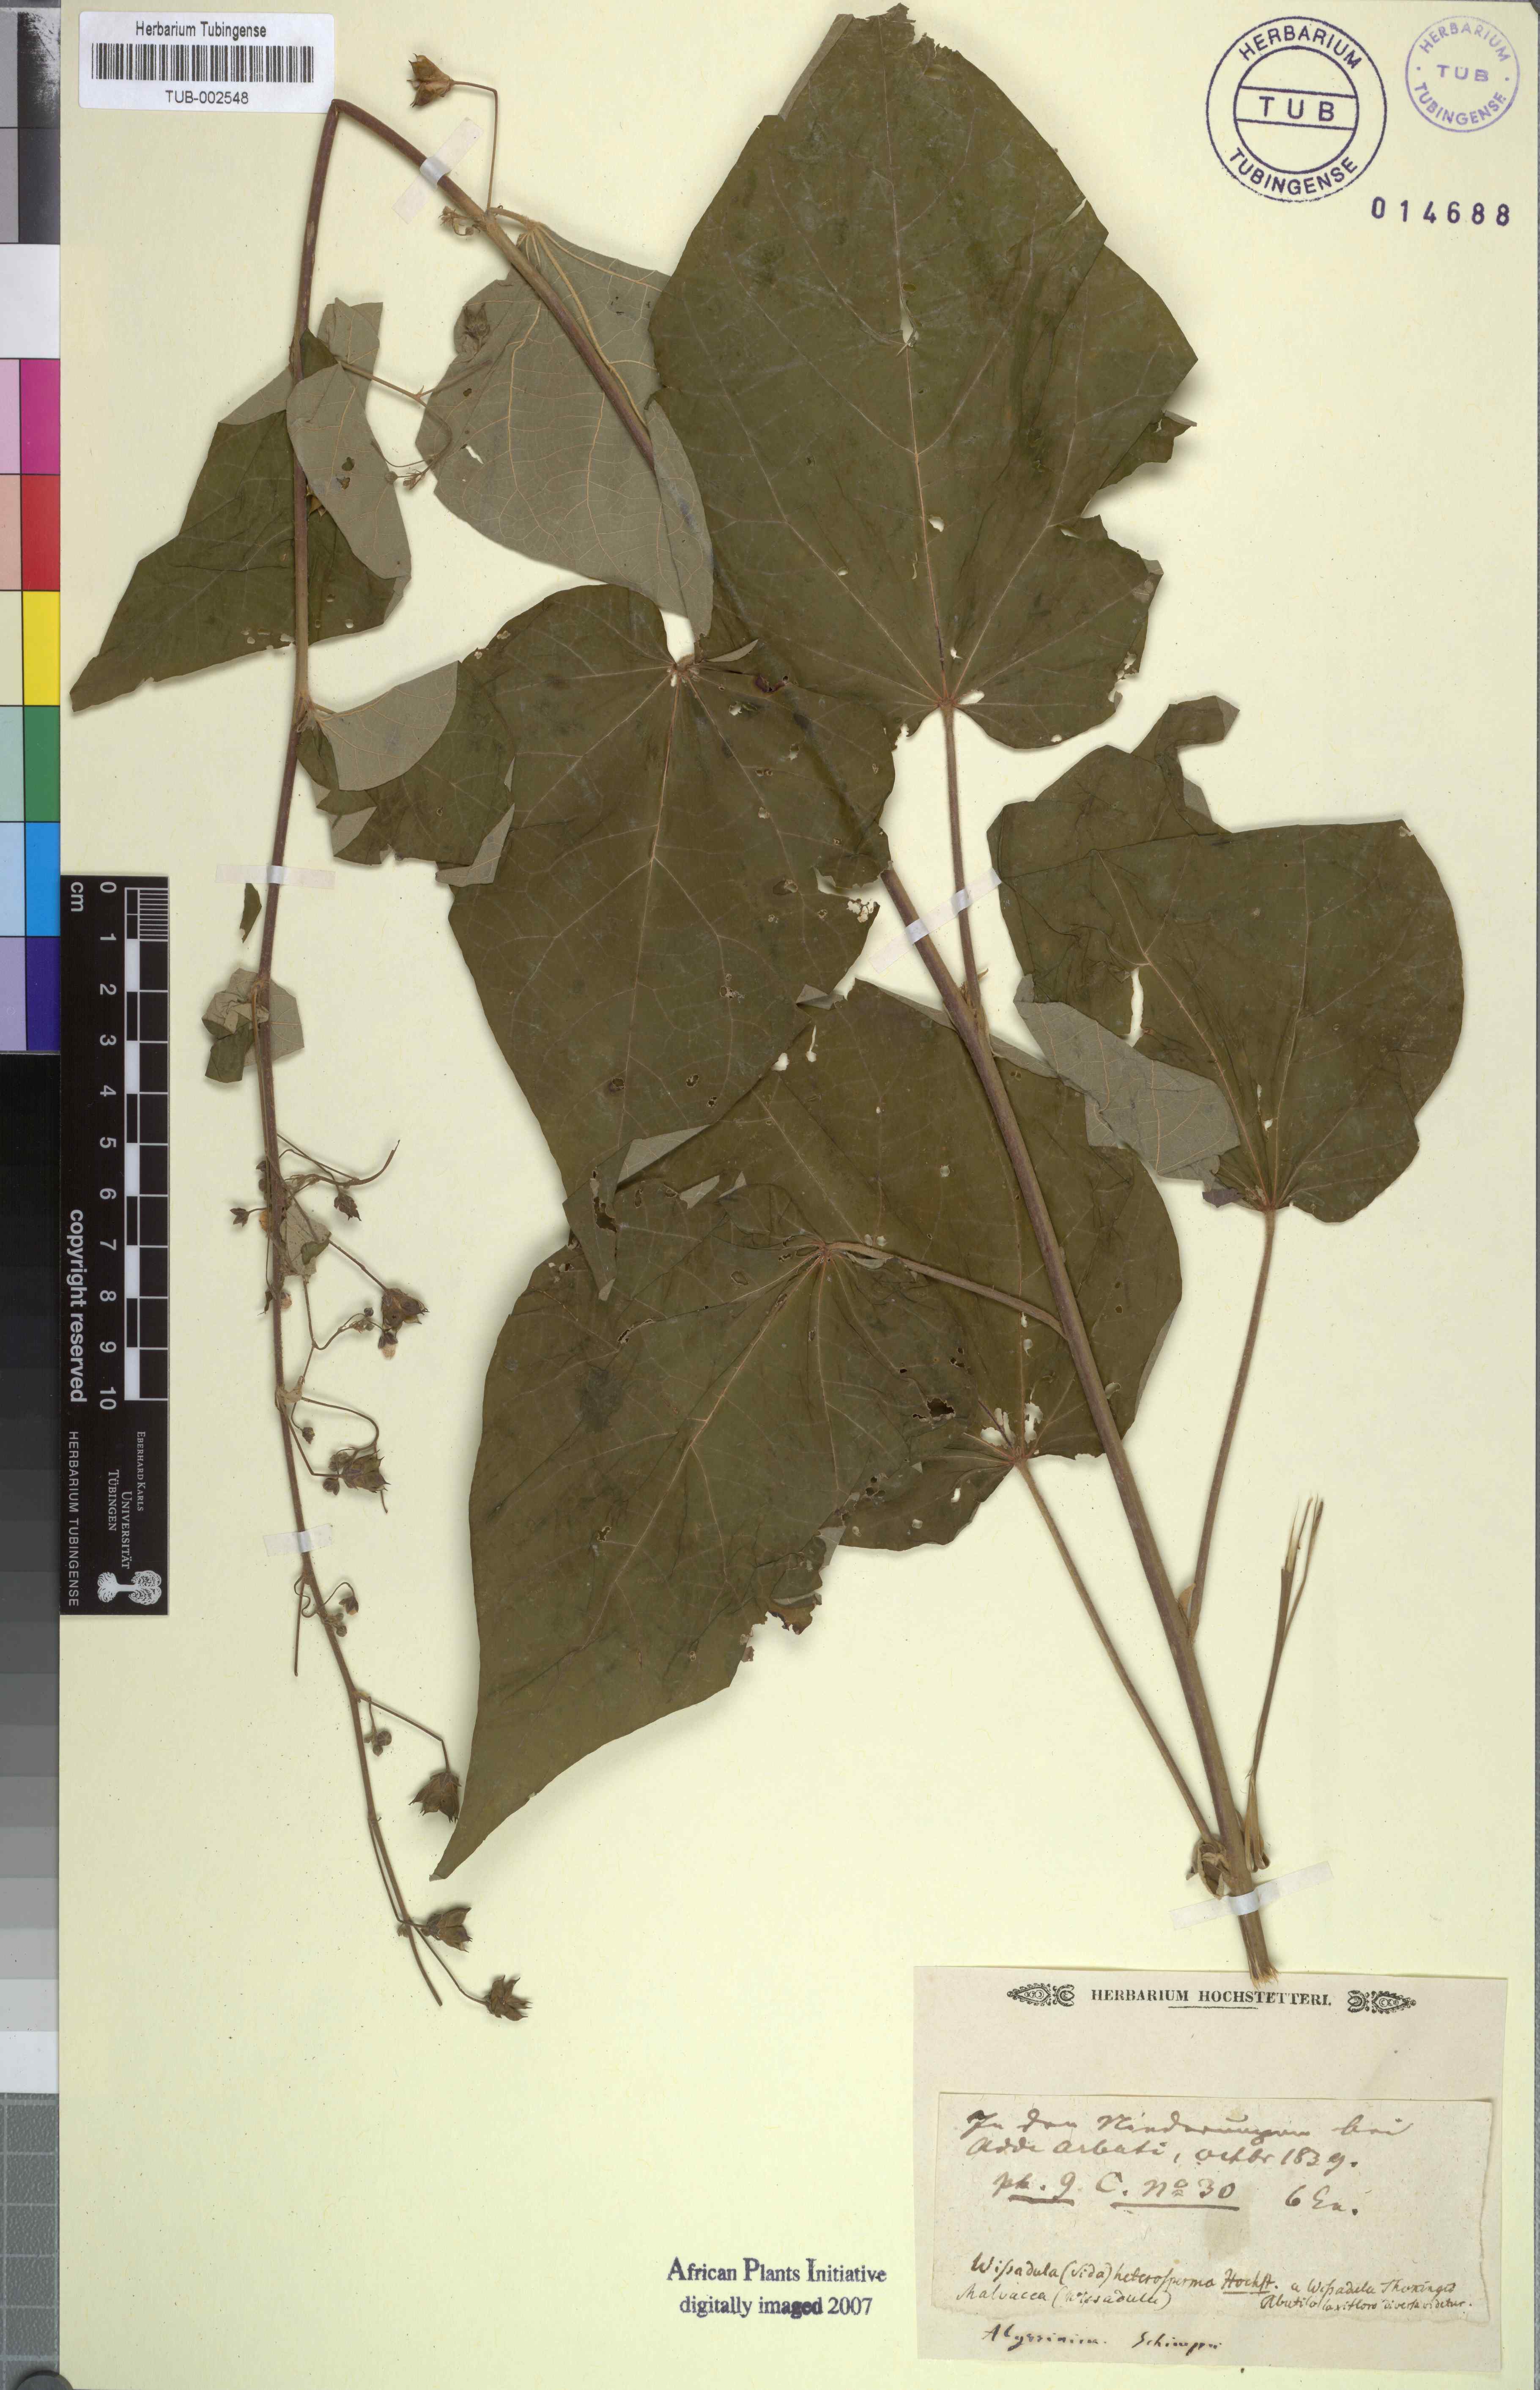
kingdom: Plantae
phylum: Tracheophyta
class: Magnoliopsida
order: Malvales
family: Malvaceae
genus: Wissadula
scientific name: Wissadula periplocifolia
